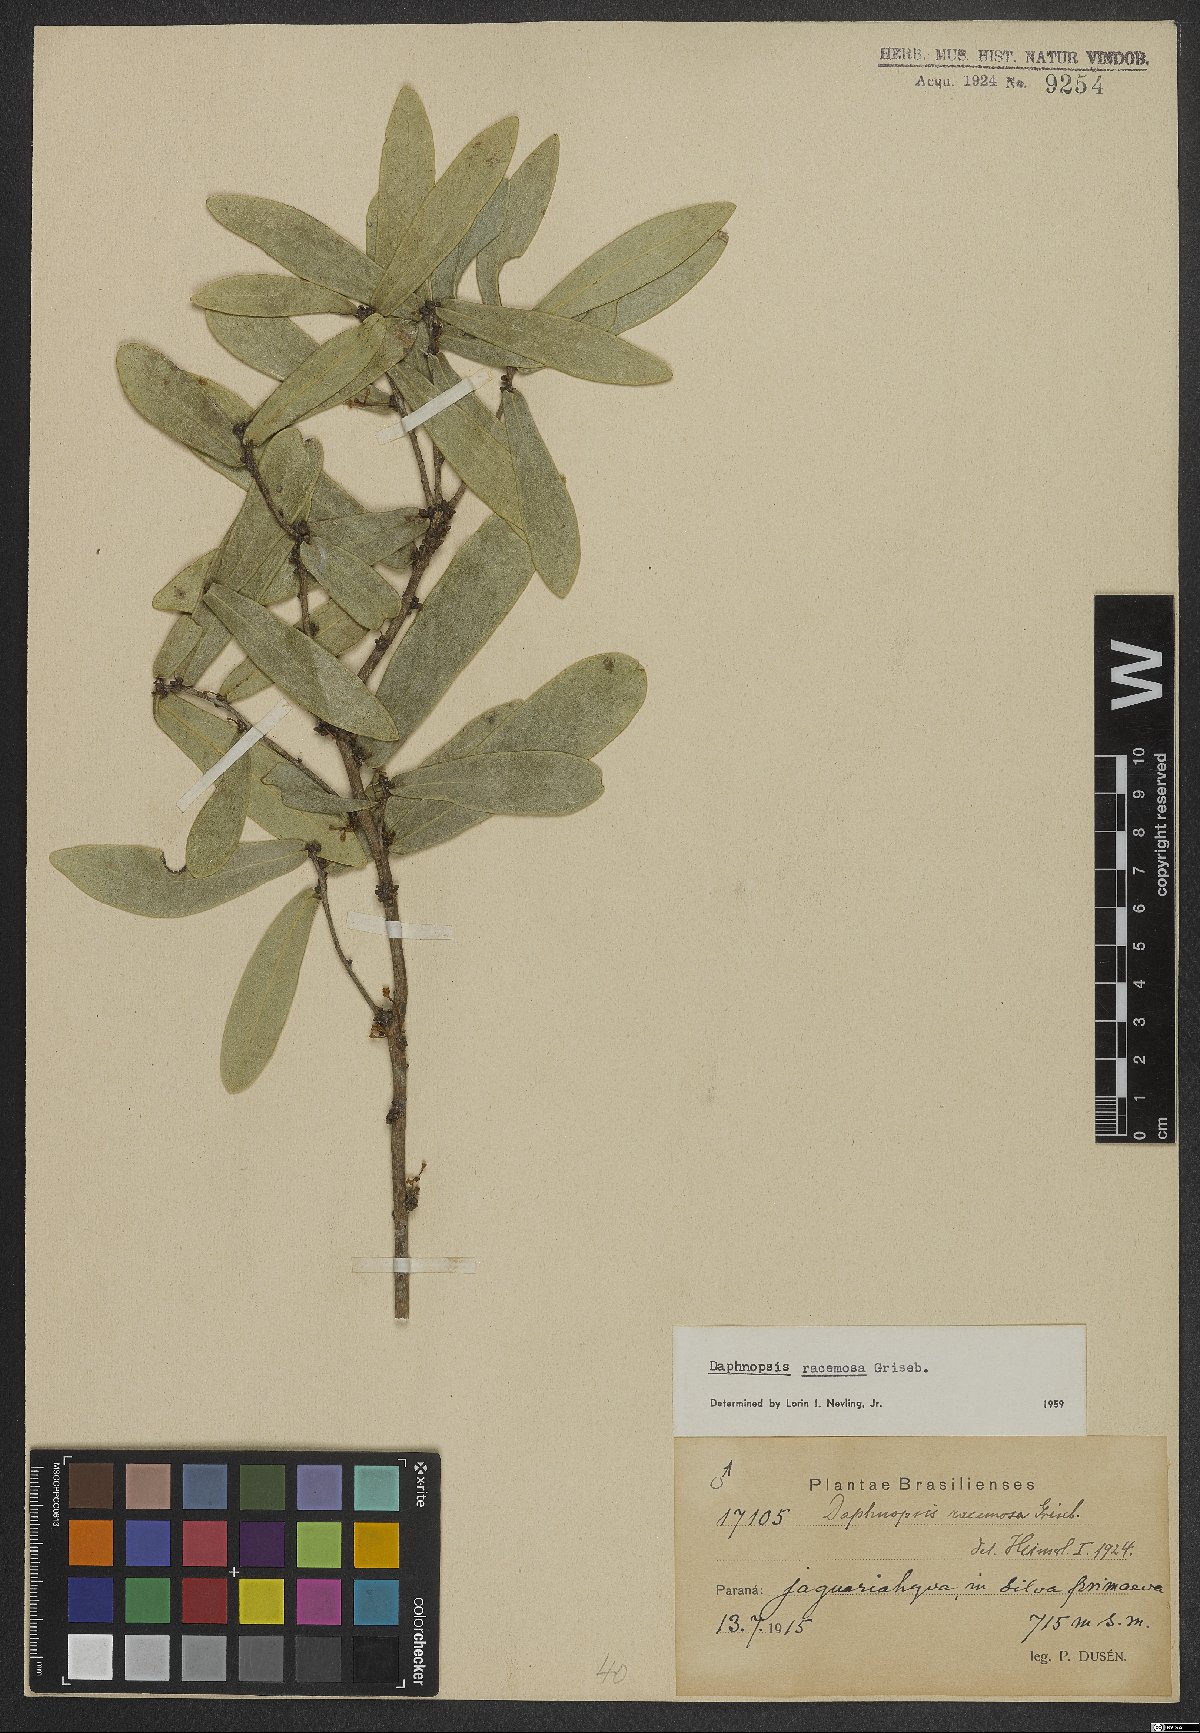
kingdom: Plantae
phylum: Tracheophyta
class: Magnoliopsida
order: Malvales
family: Thymelaeaceae
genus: Daphnopsis
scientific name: Daphnopsis racemosa
